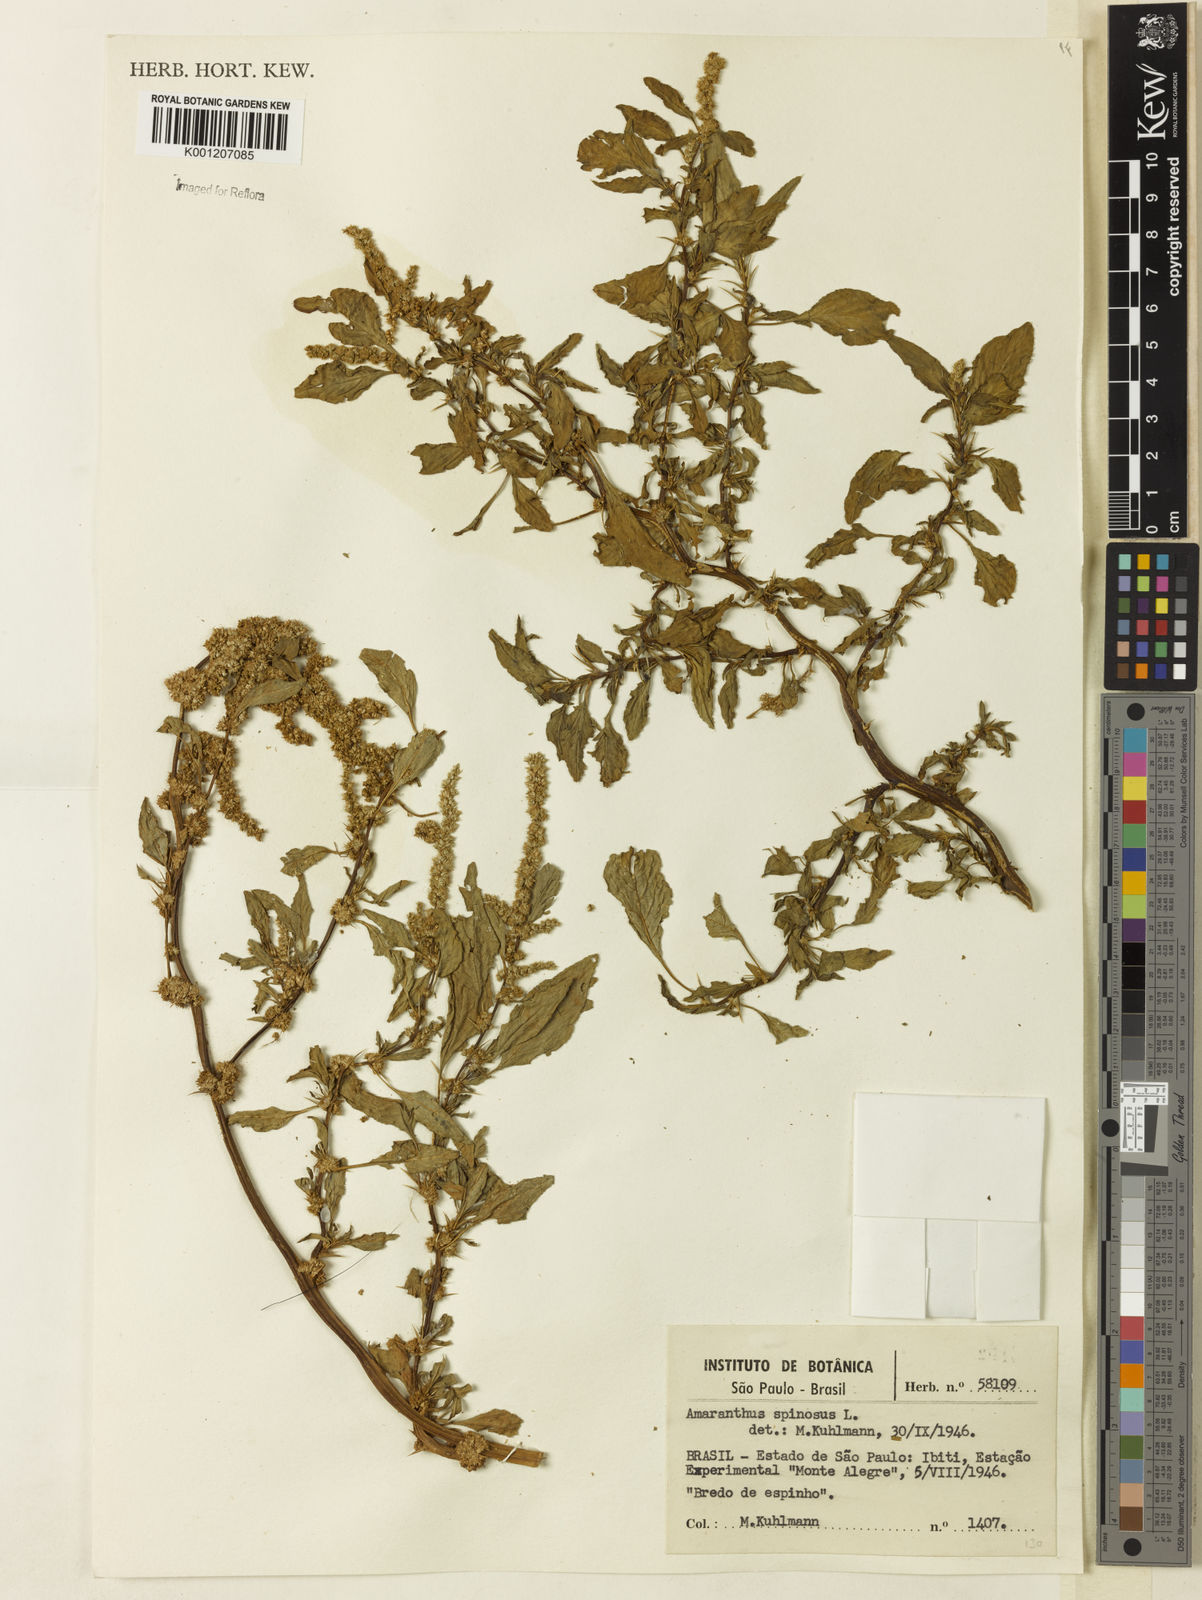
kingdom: Plantae
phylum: Tracheophyta
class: Magnoliopsida
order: Caryophyllales
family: Amaranthaceae
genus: Amaranthus
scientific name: Amaranthus spinosus
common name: Spiny amaranth
